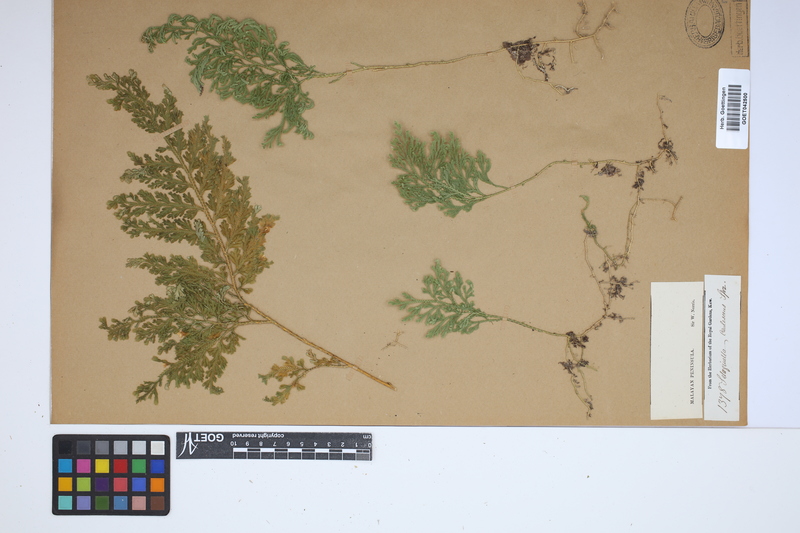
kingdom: Plantae
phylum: Tracheophyta
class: Lycopodiopsida
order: Selaginellales
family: Selaginellaceae
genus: Selaginella
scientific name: Selaginella involvens
